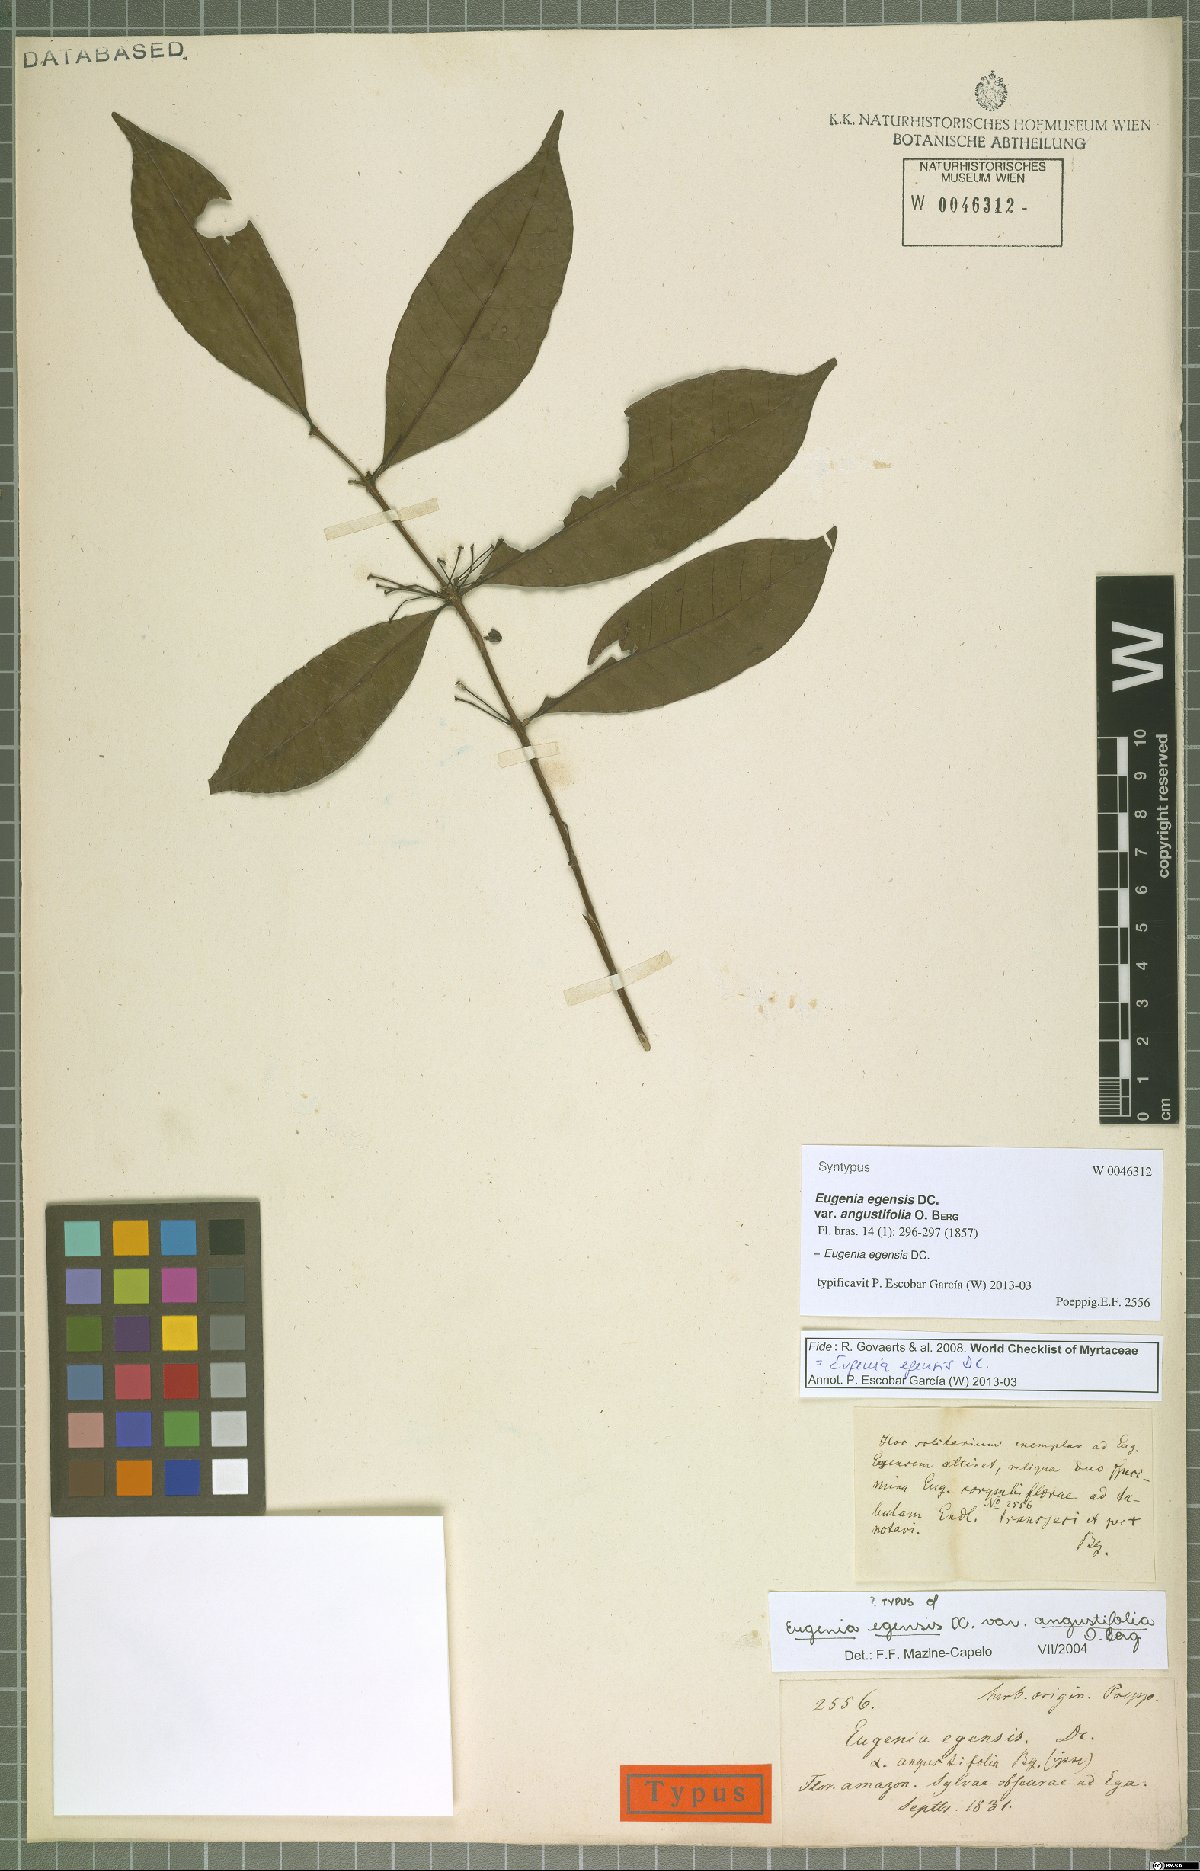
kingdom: Plantae
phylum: Tracheophyta
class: Magnoliopsida
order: Myrtales
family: Myrtaceae
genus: Eugenia
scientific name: Eugenia egensis
